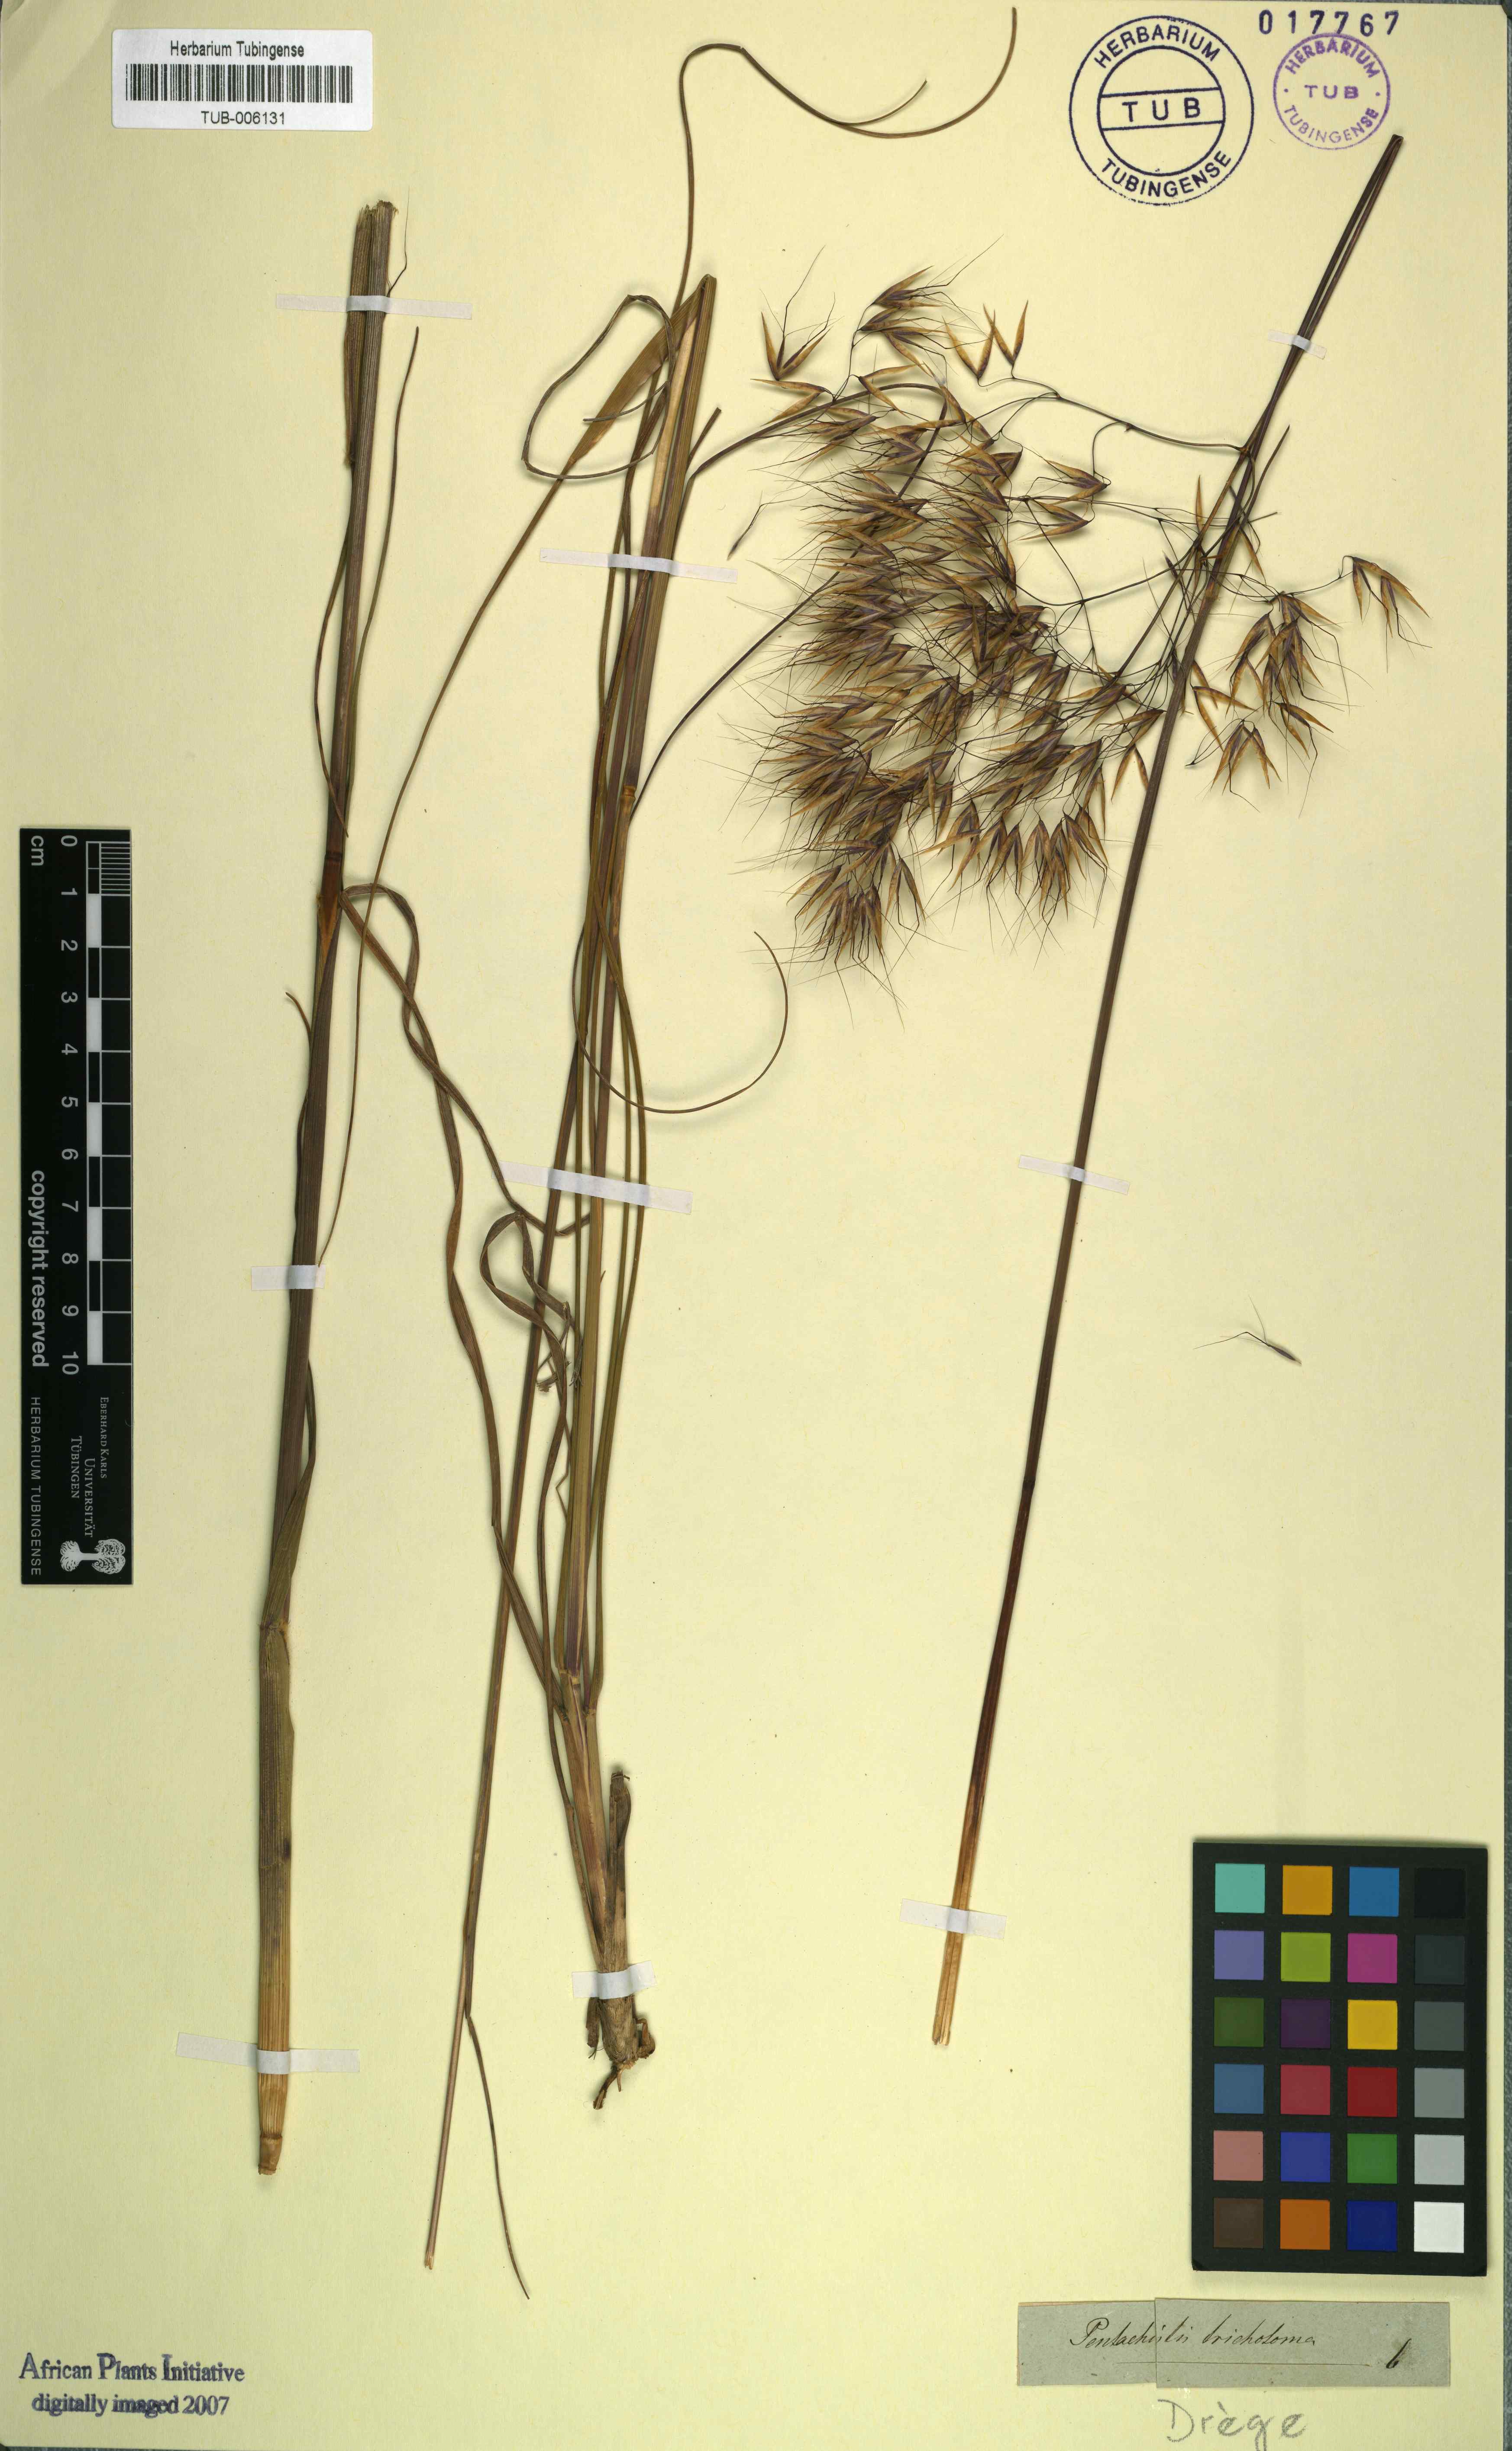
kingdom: Plantae
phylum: Tracheophyta
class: Liliopsida
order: Poales
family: Poaceae
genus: Pentameris
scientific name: Pentameris aristidoides
